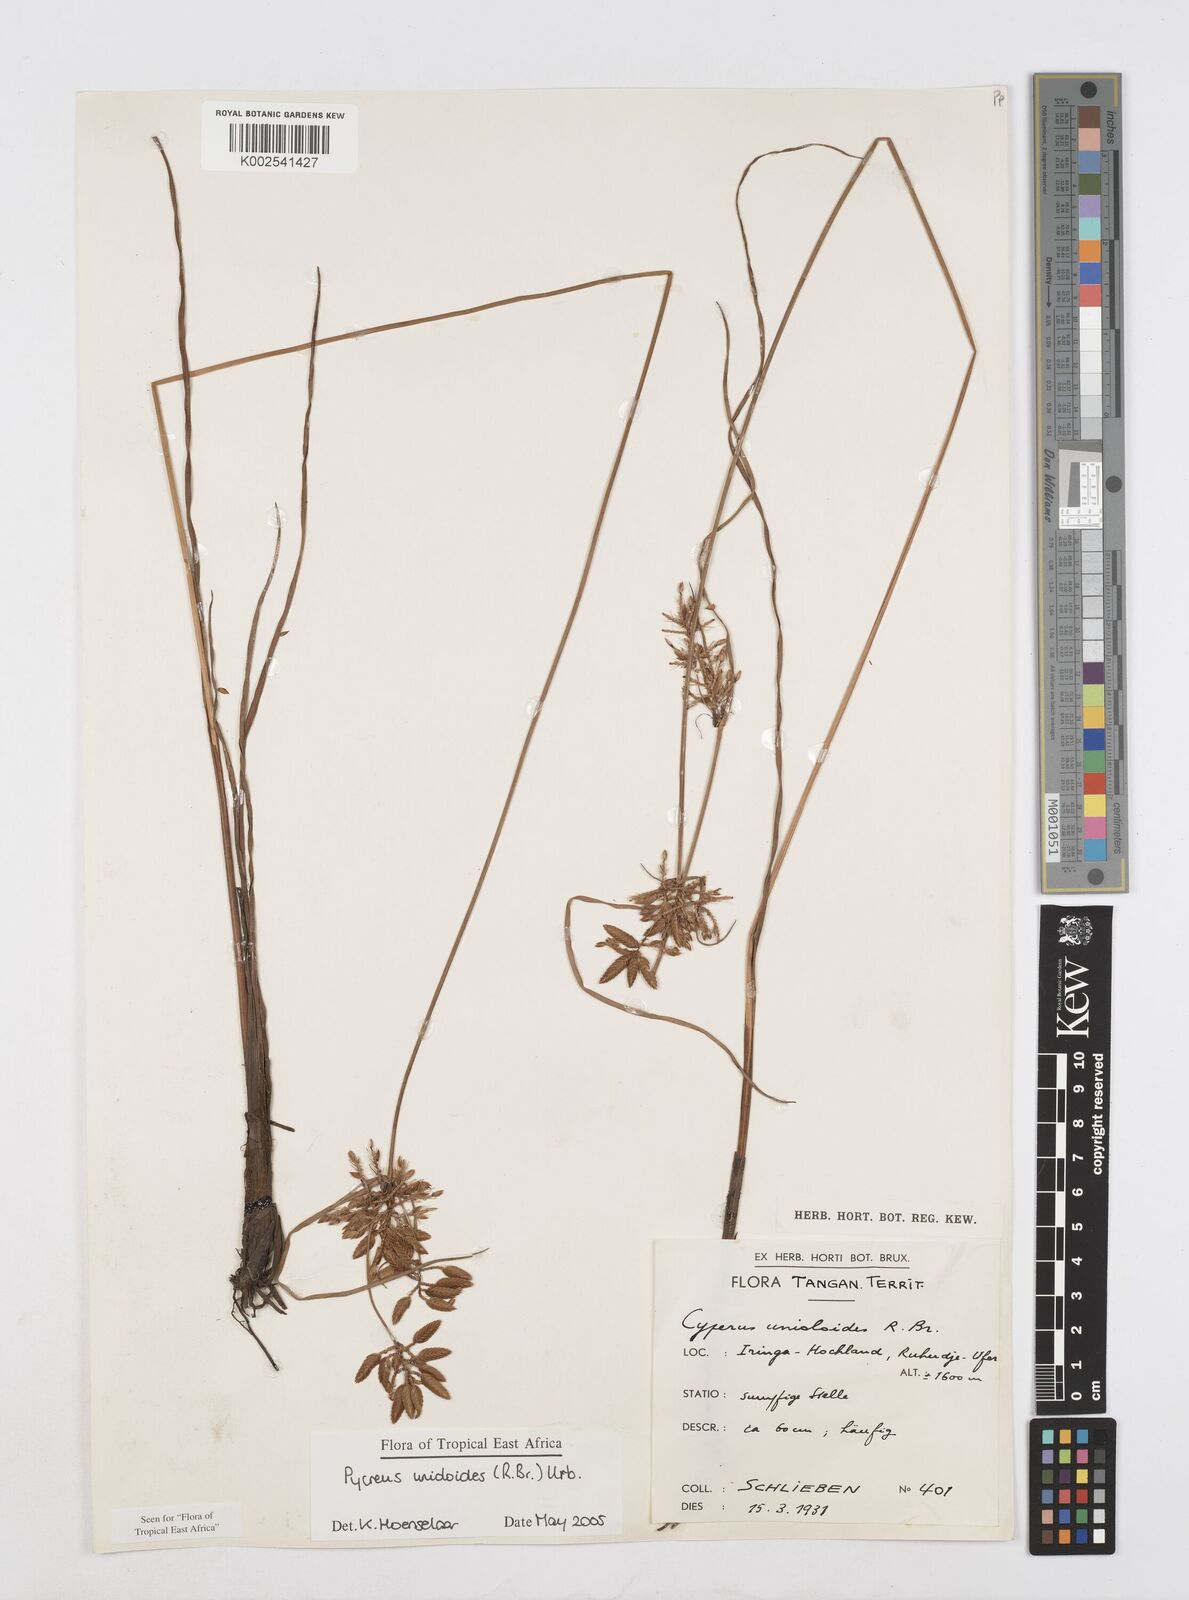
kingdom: Plantae
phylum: Tracheophyta
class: Liliopsida
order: Poales
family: Cyperaceae
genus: Cyperus
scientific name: Cyperus unioloides
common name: Uniola flatsedge
